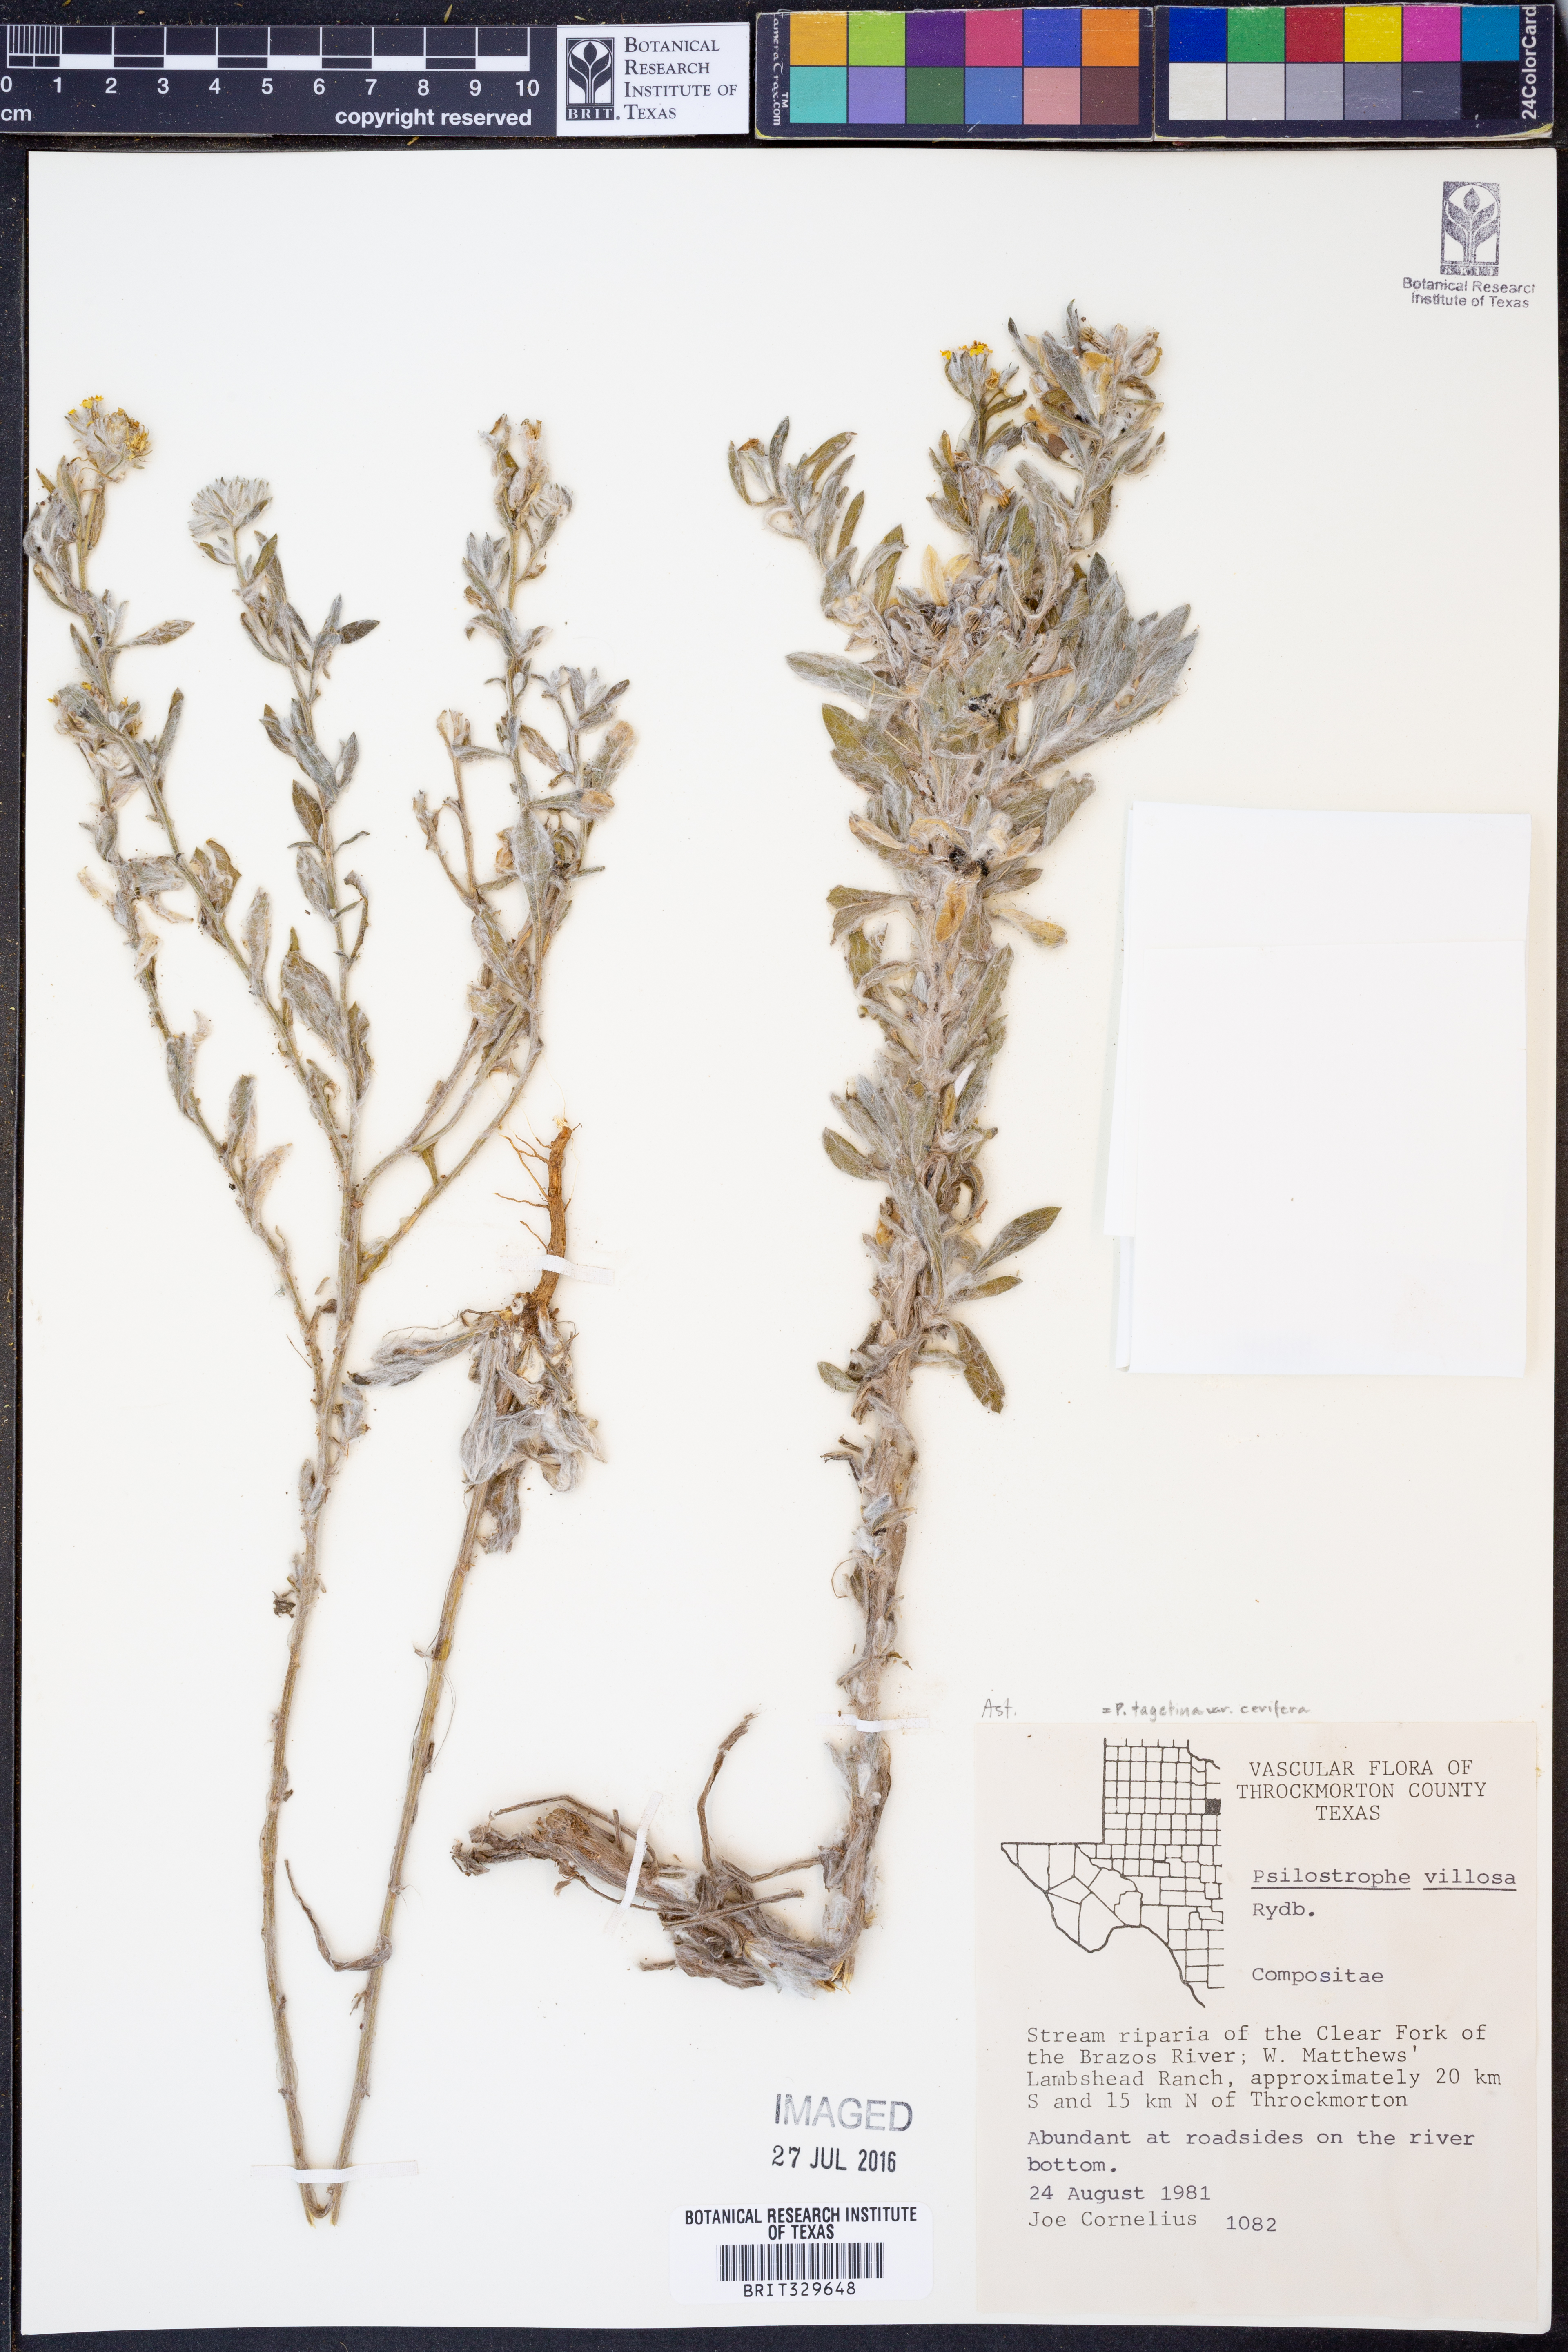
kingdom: Plantae
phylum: Tracheophyta
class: Magnoliopsida
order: Asterales
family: Asteraceae
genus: Psilostrophe
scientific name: Psilostrophe villosa
